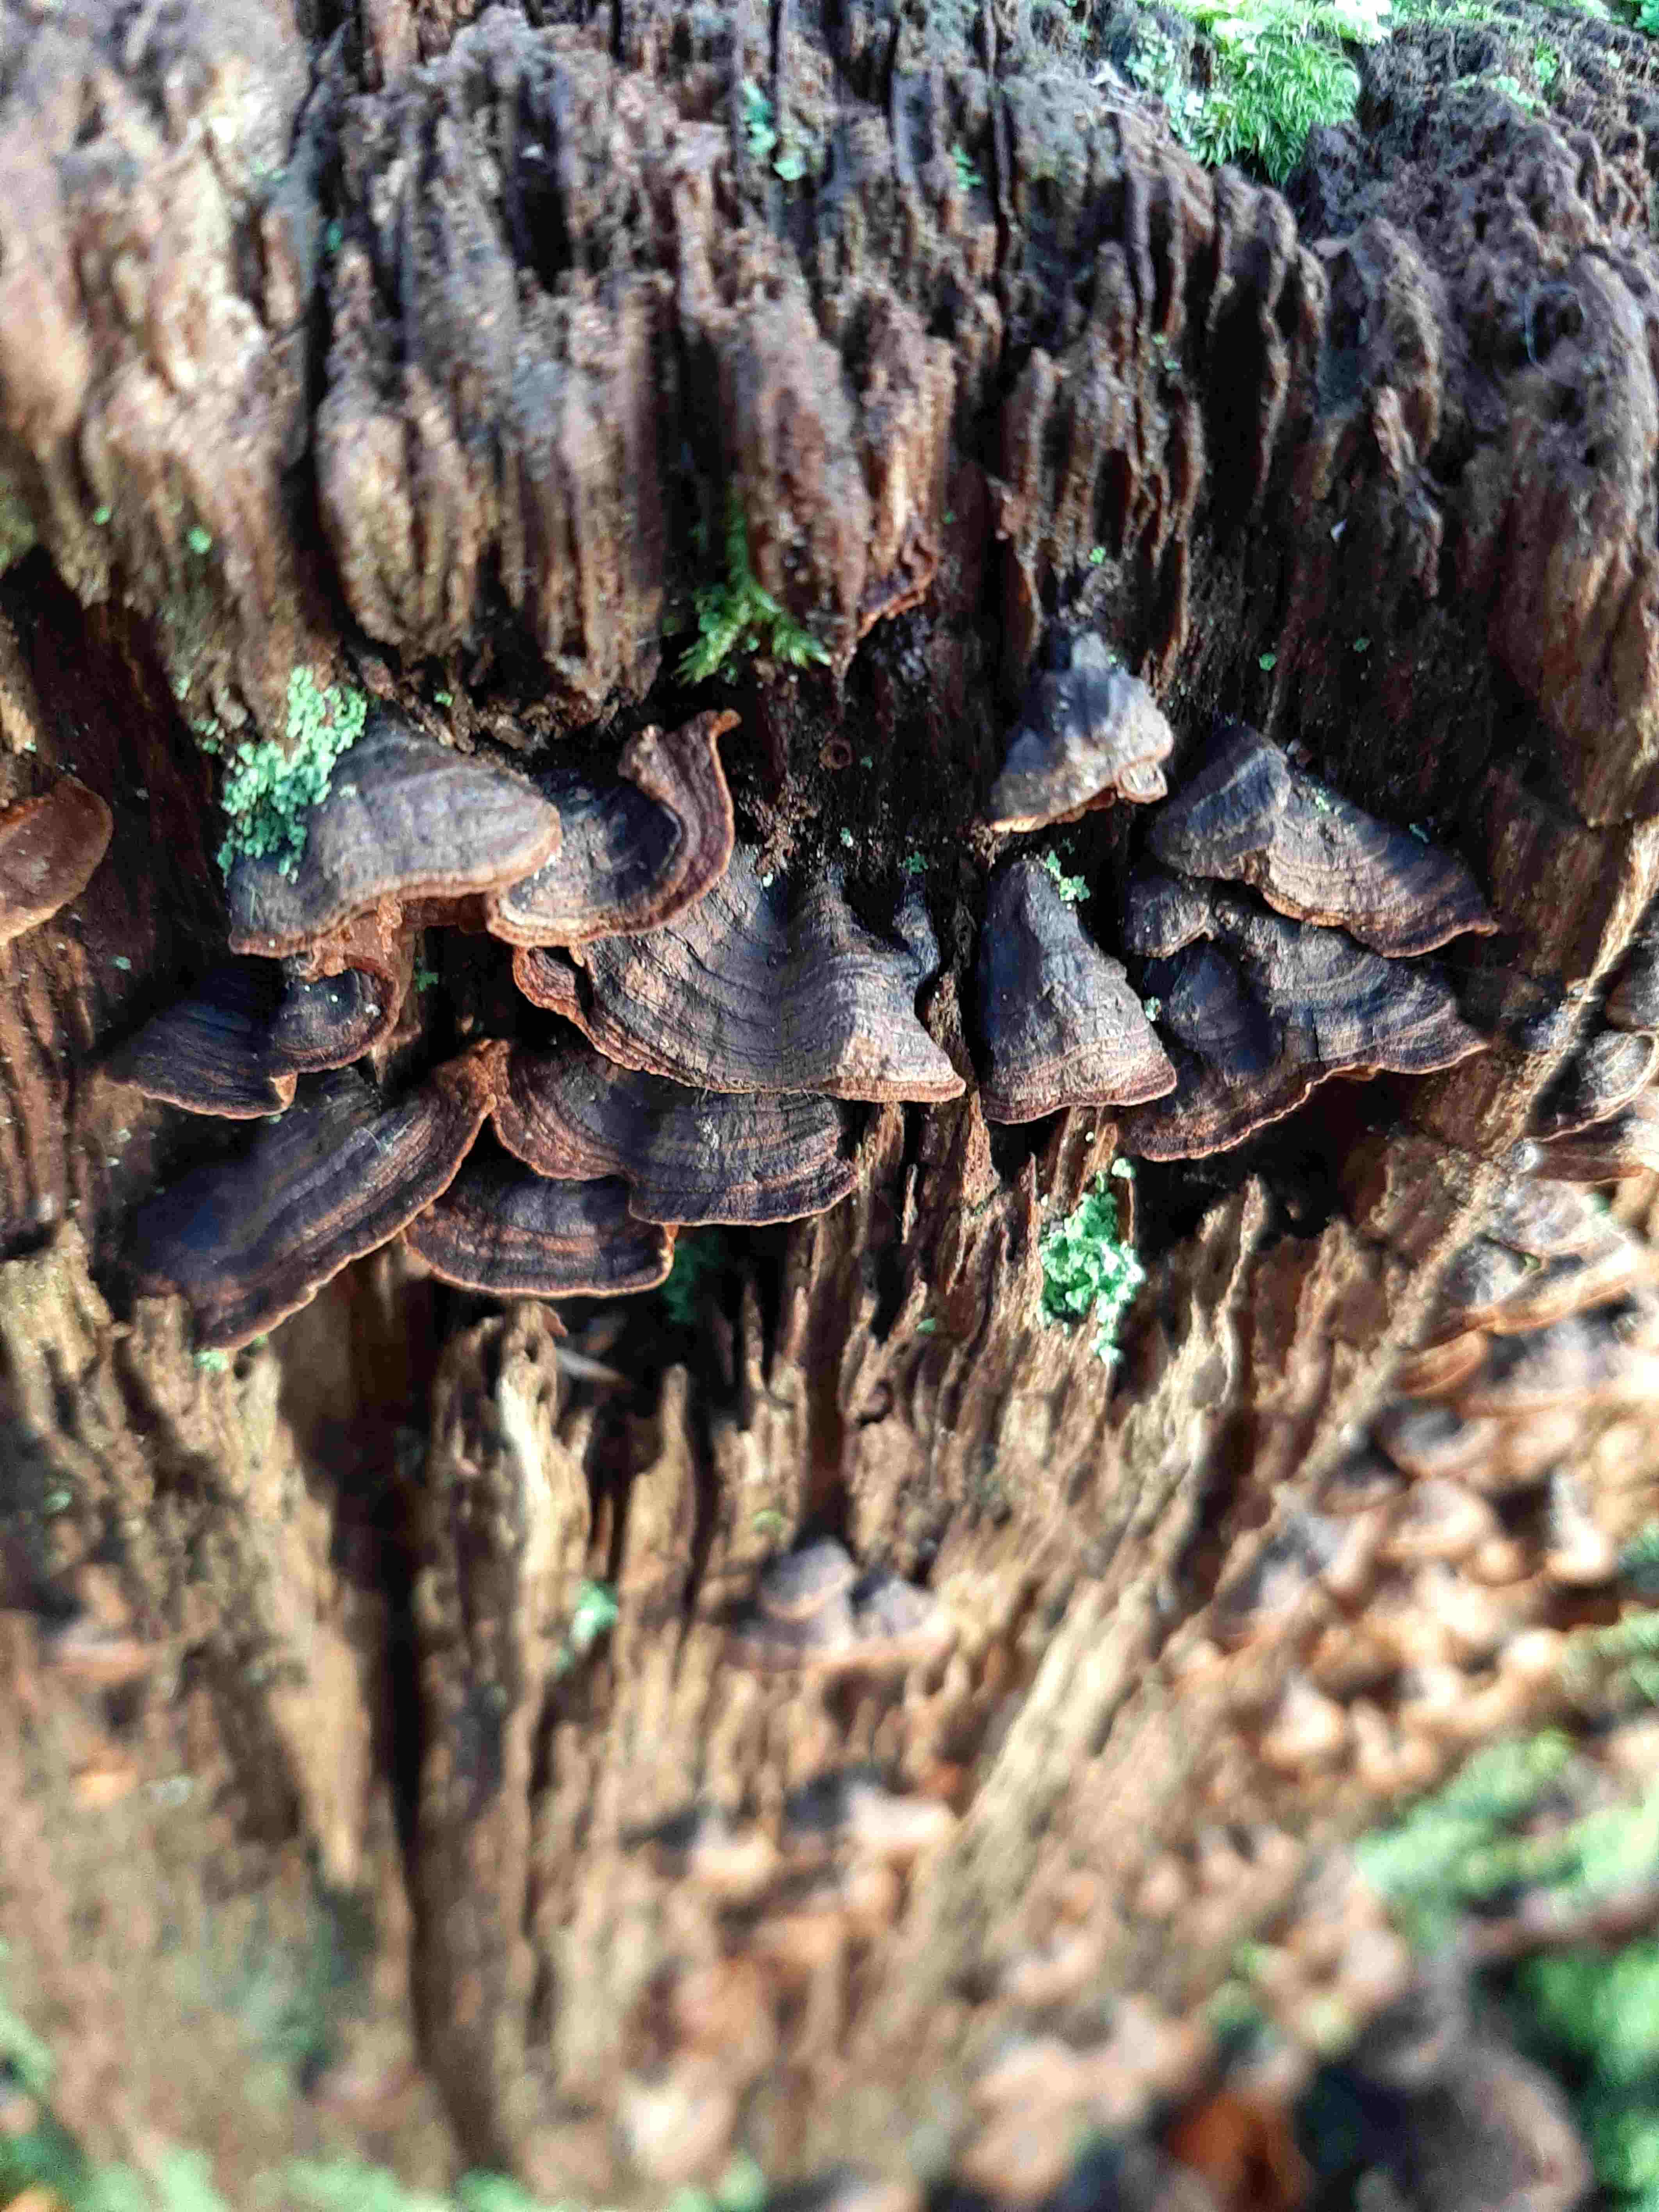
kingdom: Fungi
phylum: Basidiomycota
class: Agaricomycetes
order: Hymenochaetales
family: Hymenochaetaceae
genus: Hymenochaete
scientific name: Hymenochaete rubiginosa
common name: stiv ruslædersvamp
